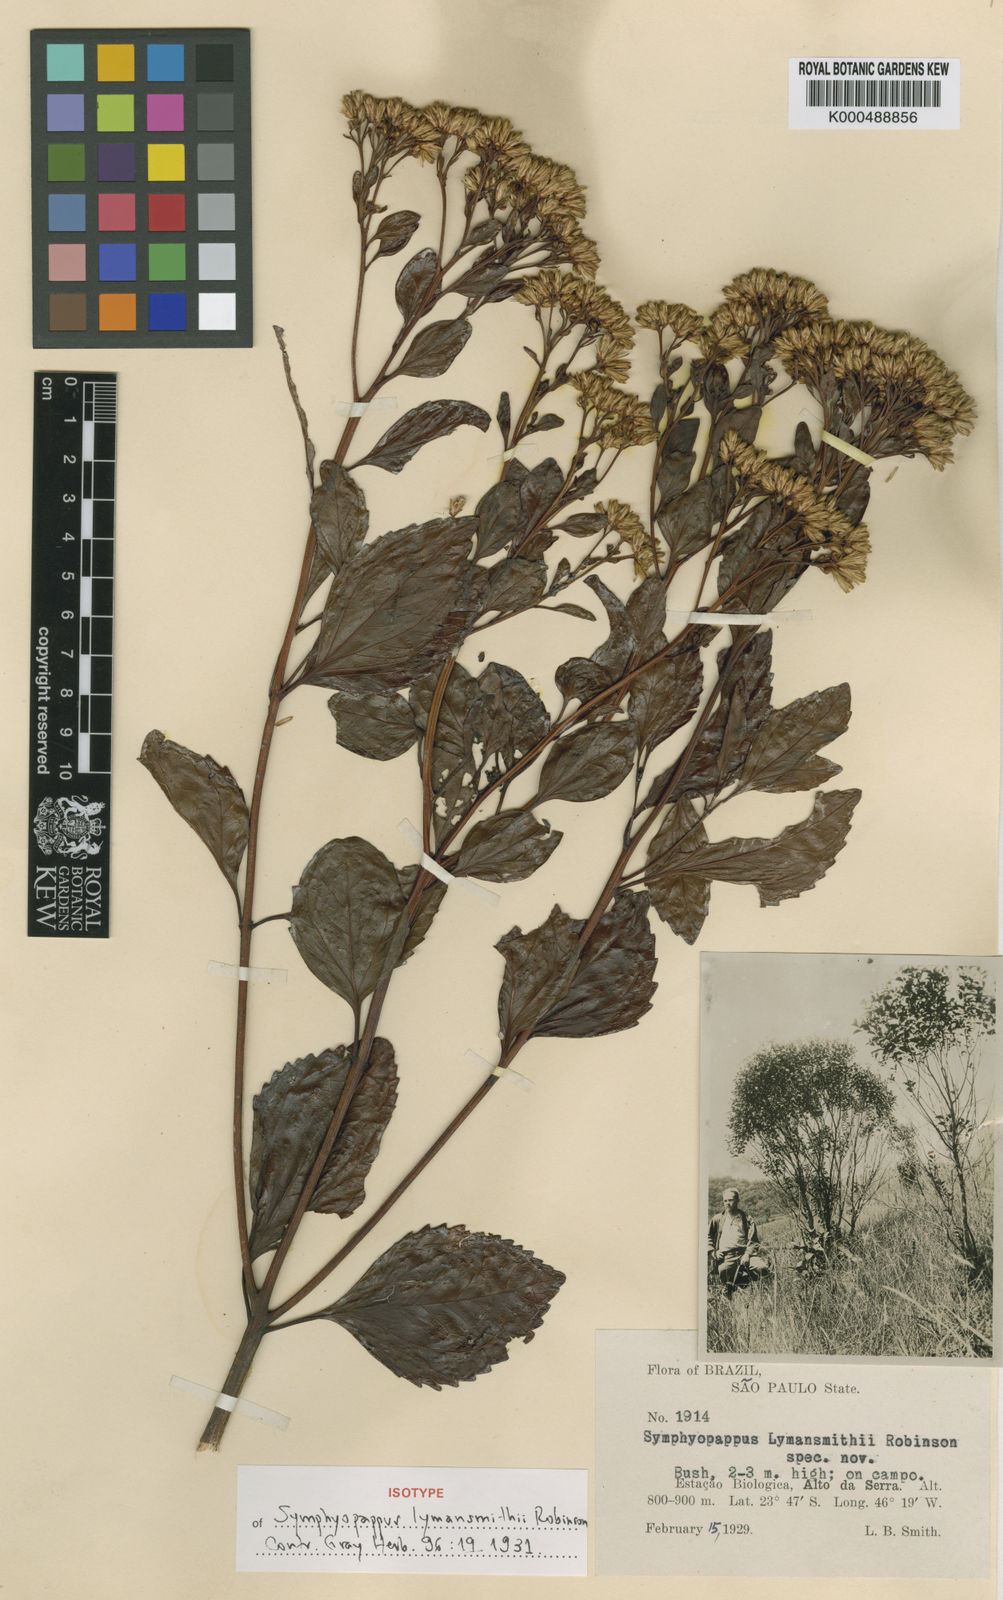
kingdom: Plantae
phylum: Tracheophyta
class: Magnoliopsida
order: Asterales
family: Asteraceae
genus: Symphyopappus
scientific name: Symphyopappus lymansmithii
